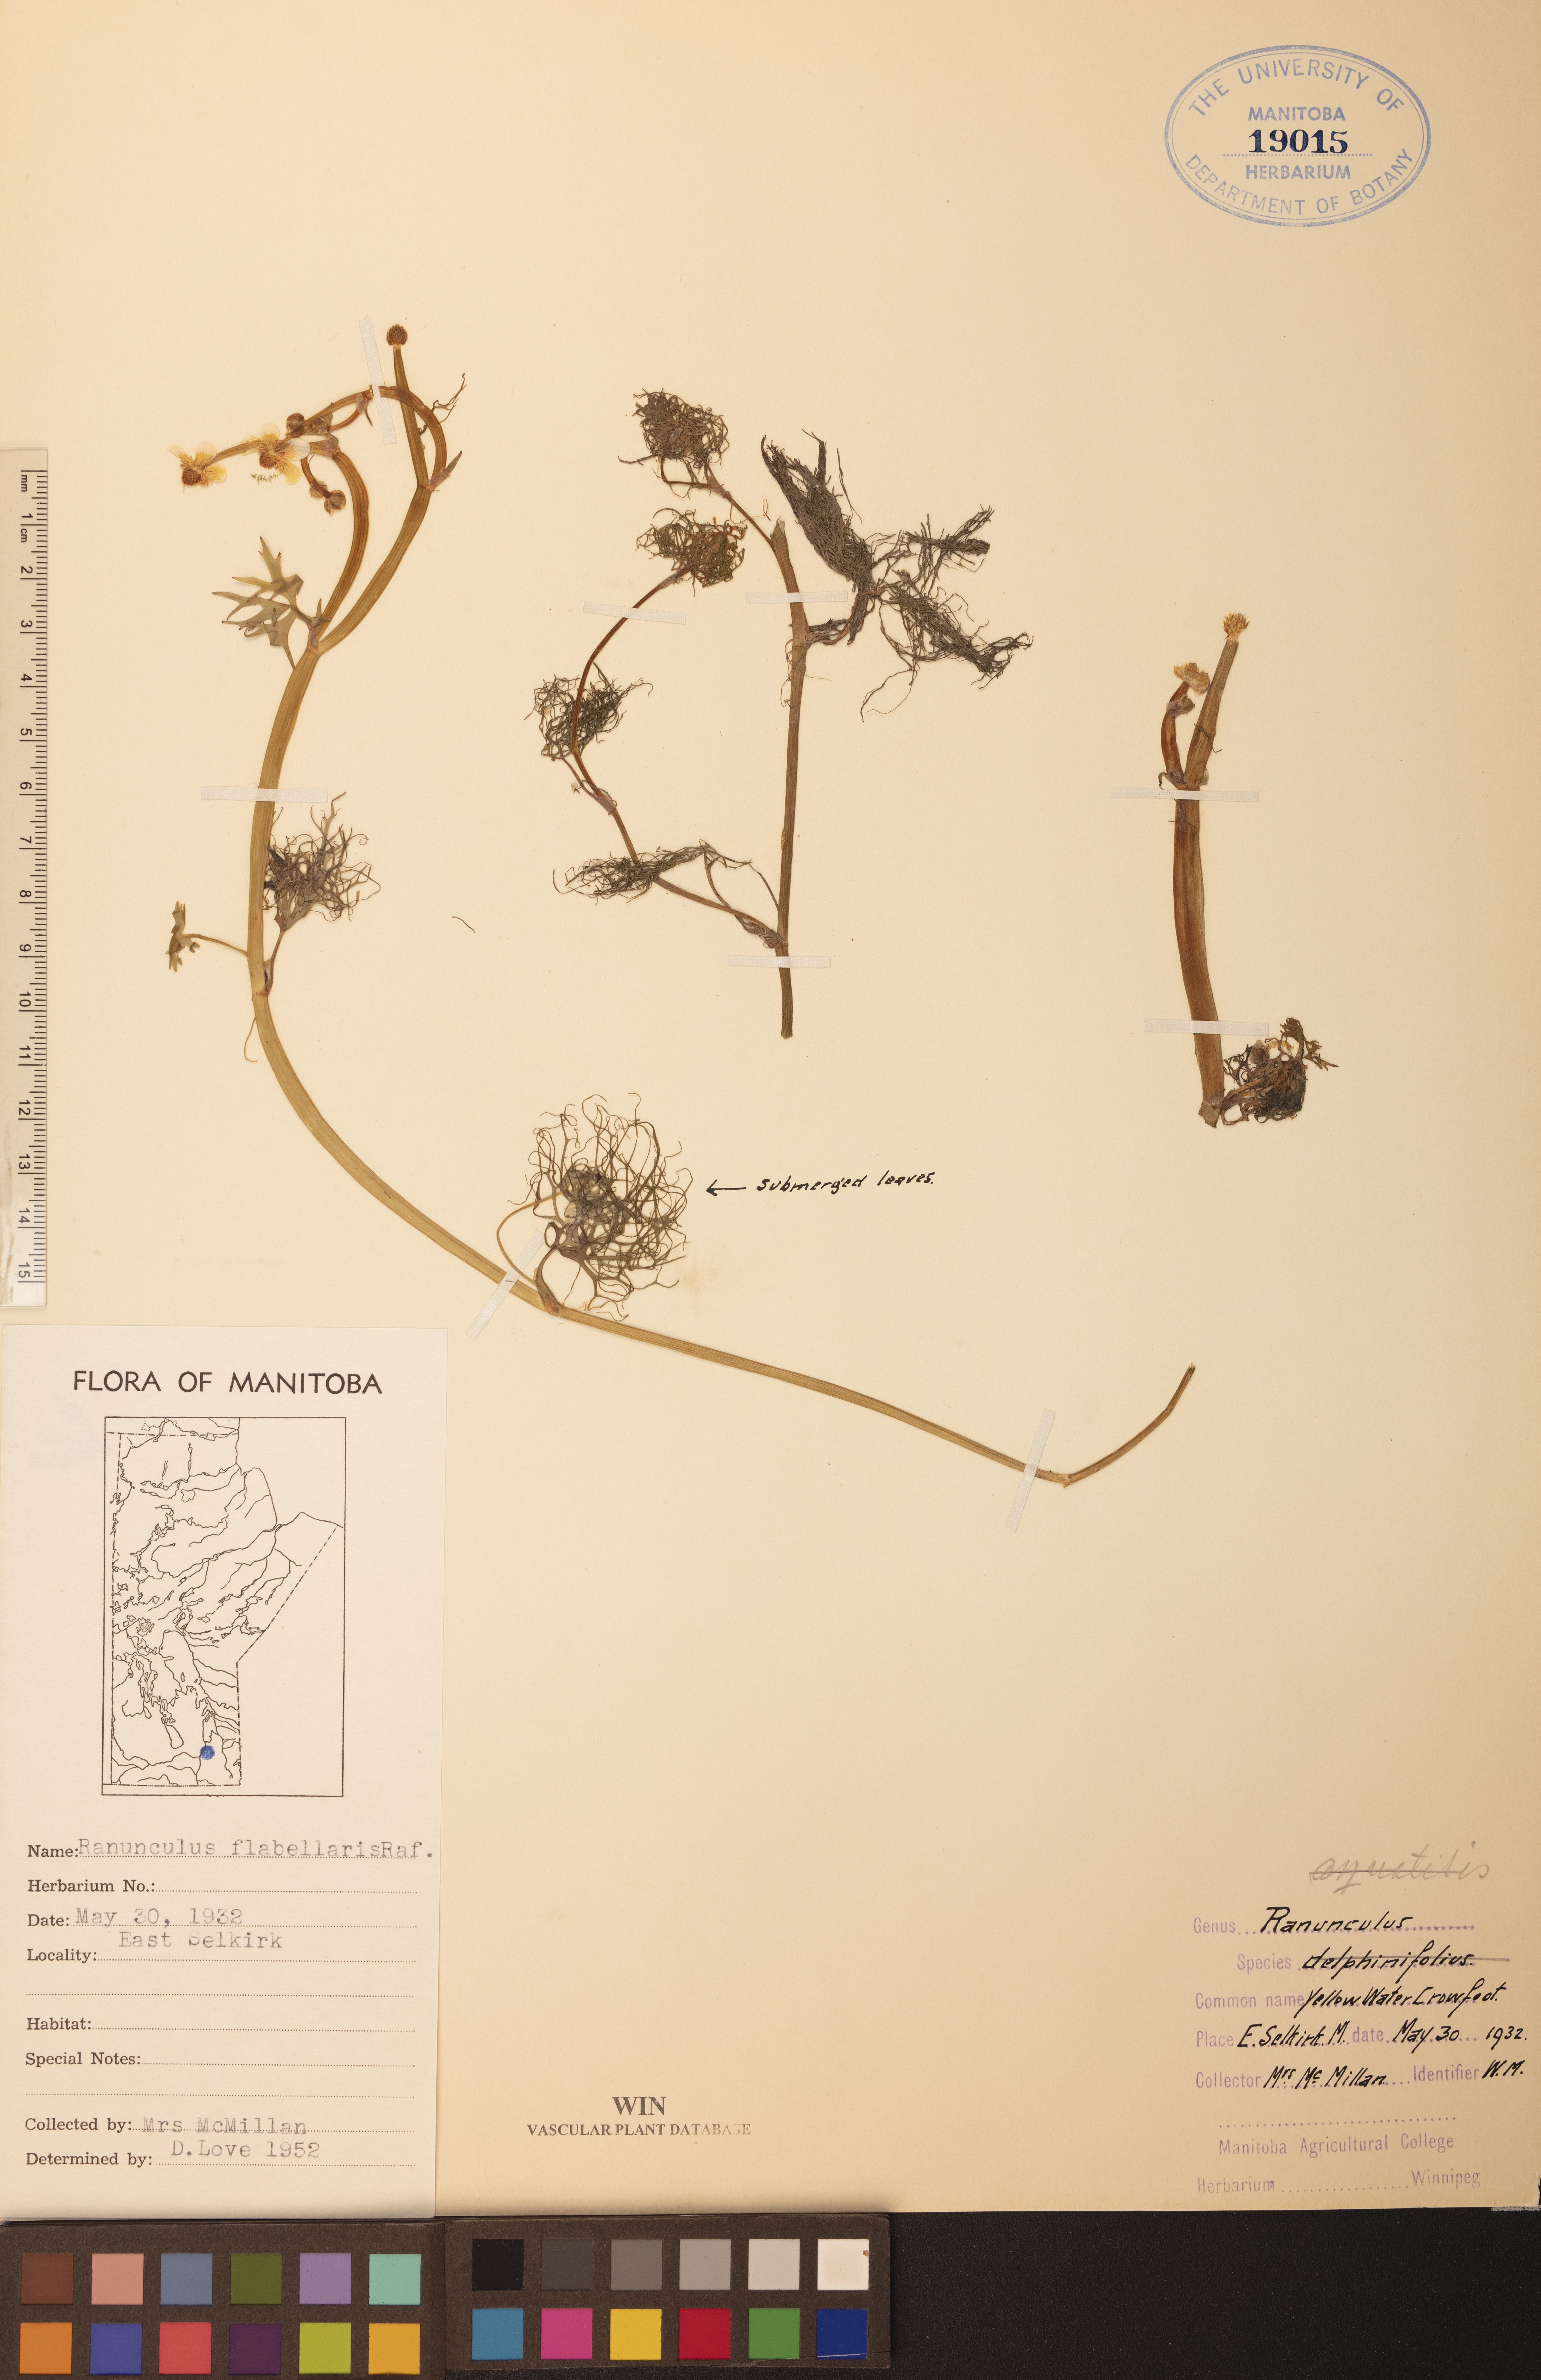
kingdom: Plantae
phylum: Tracheophyta
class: Magnoliopsida
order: Ranunculales
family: Ranunculaceae
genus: Ranunculus
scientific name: Ranunculus flabellaris
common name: Yellow water-crowfoot
